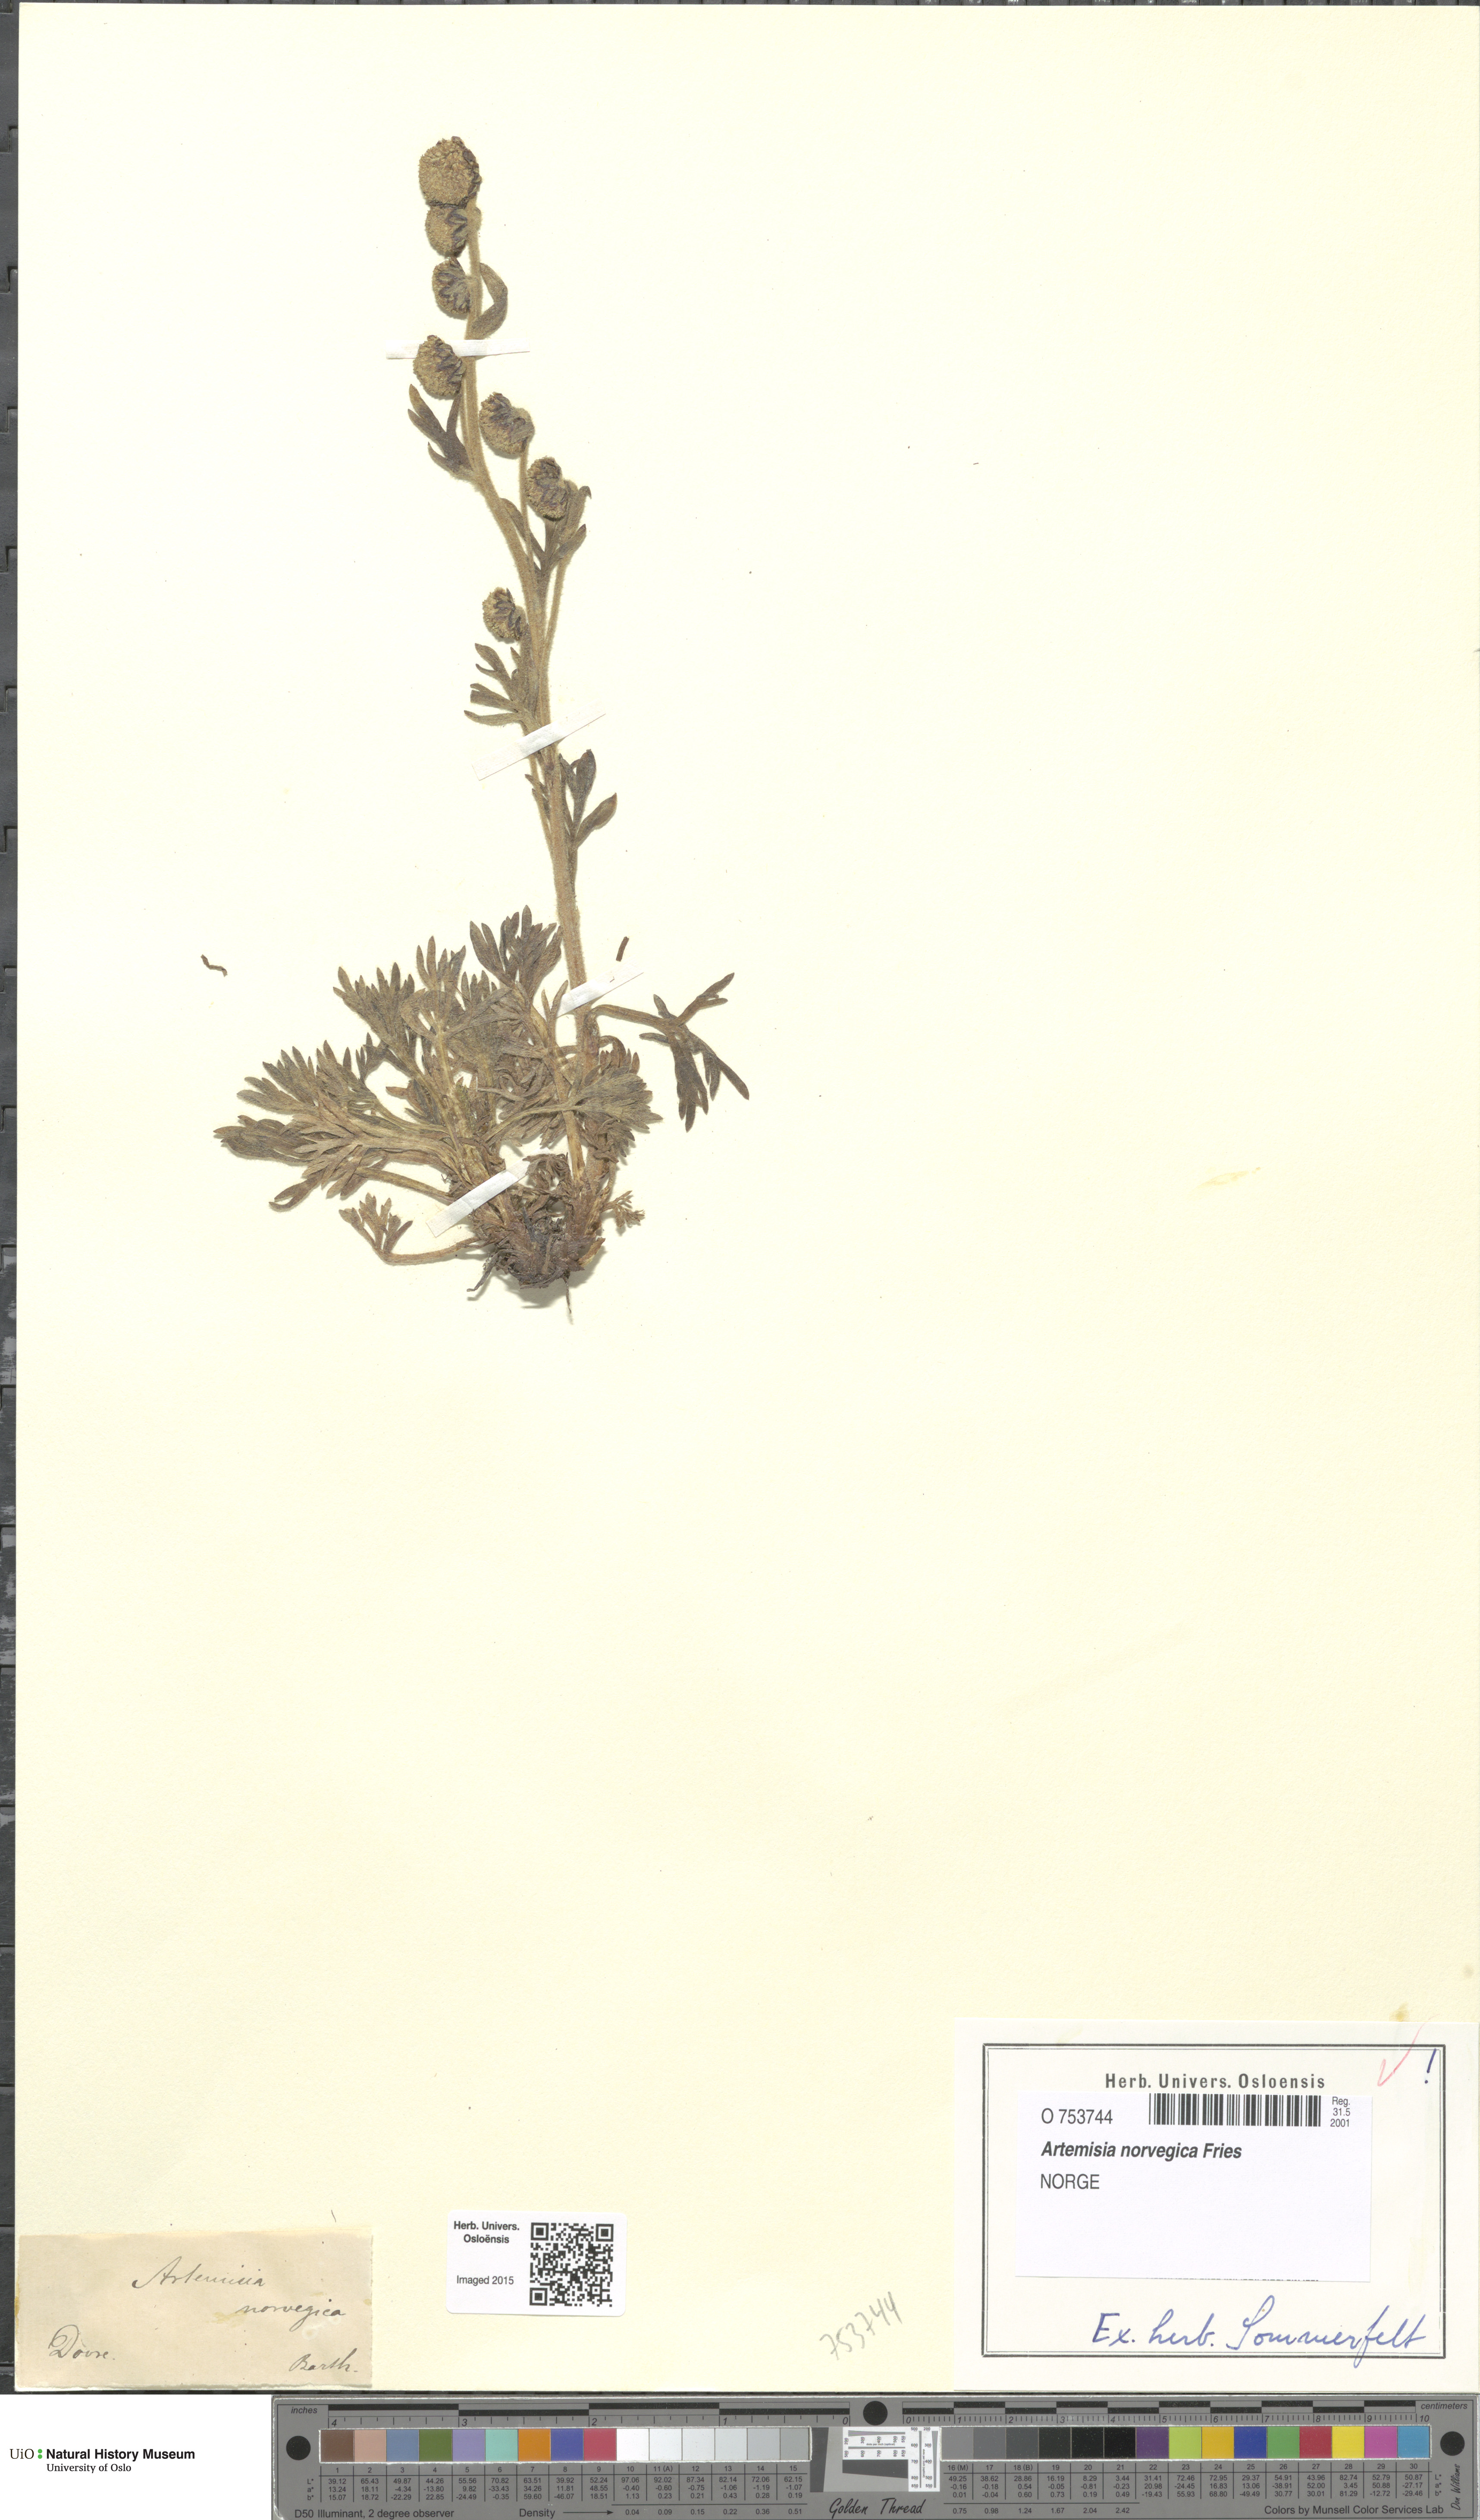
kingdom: Plantae
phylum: Tracheophyta
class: Magnoliopsida
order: Asterales
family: Asteraceae
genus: Artemisia
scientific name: Artemisia norvegica
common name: Norwegian mugwort
